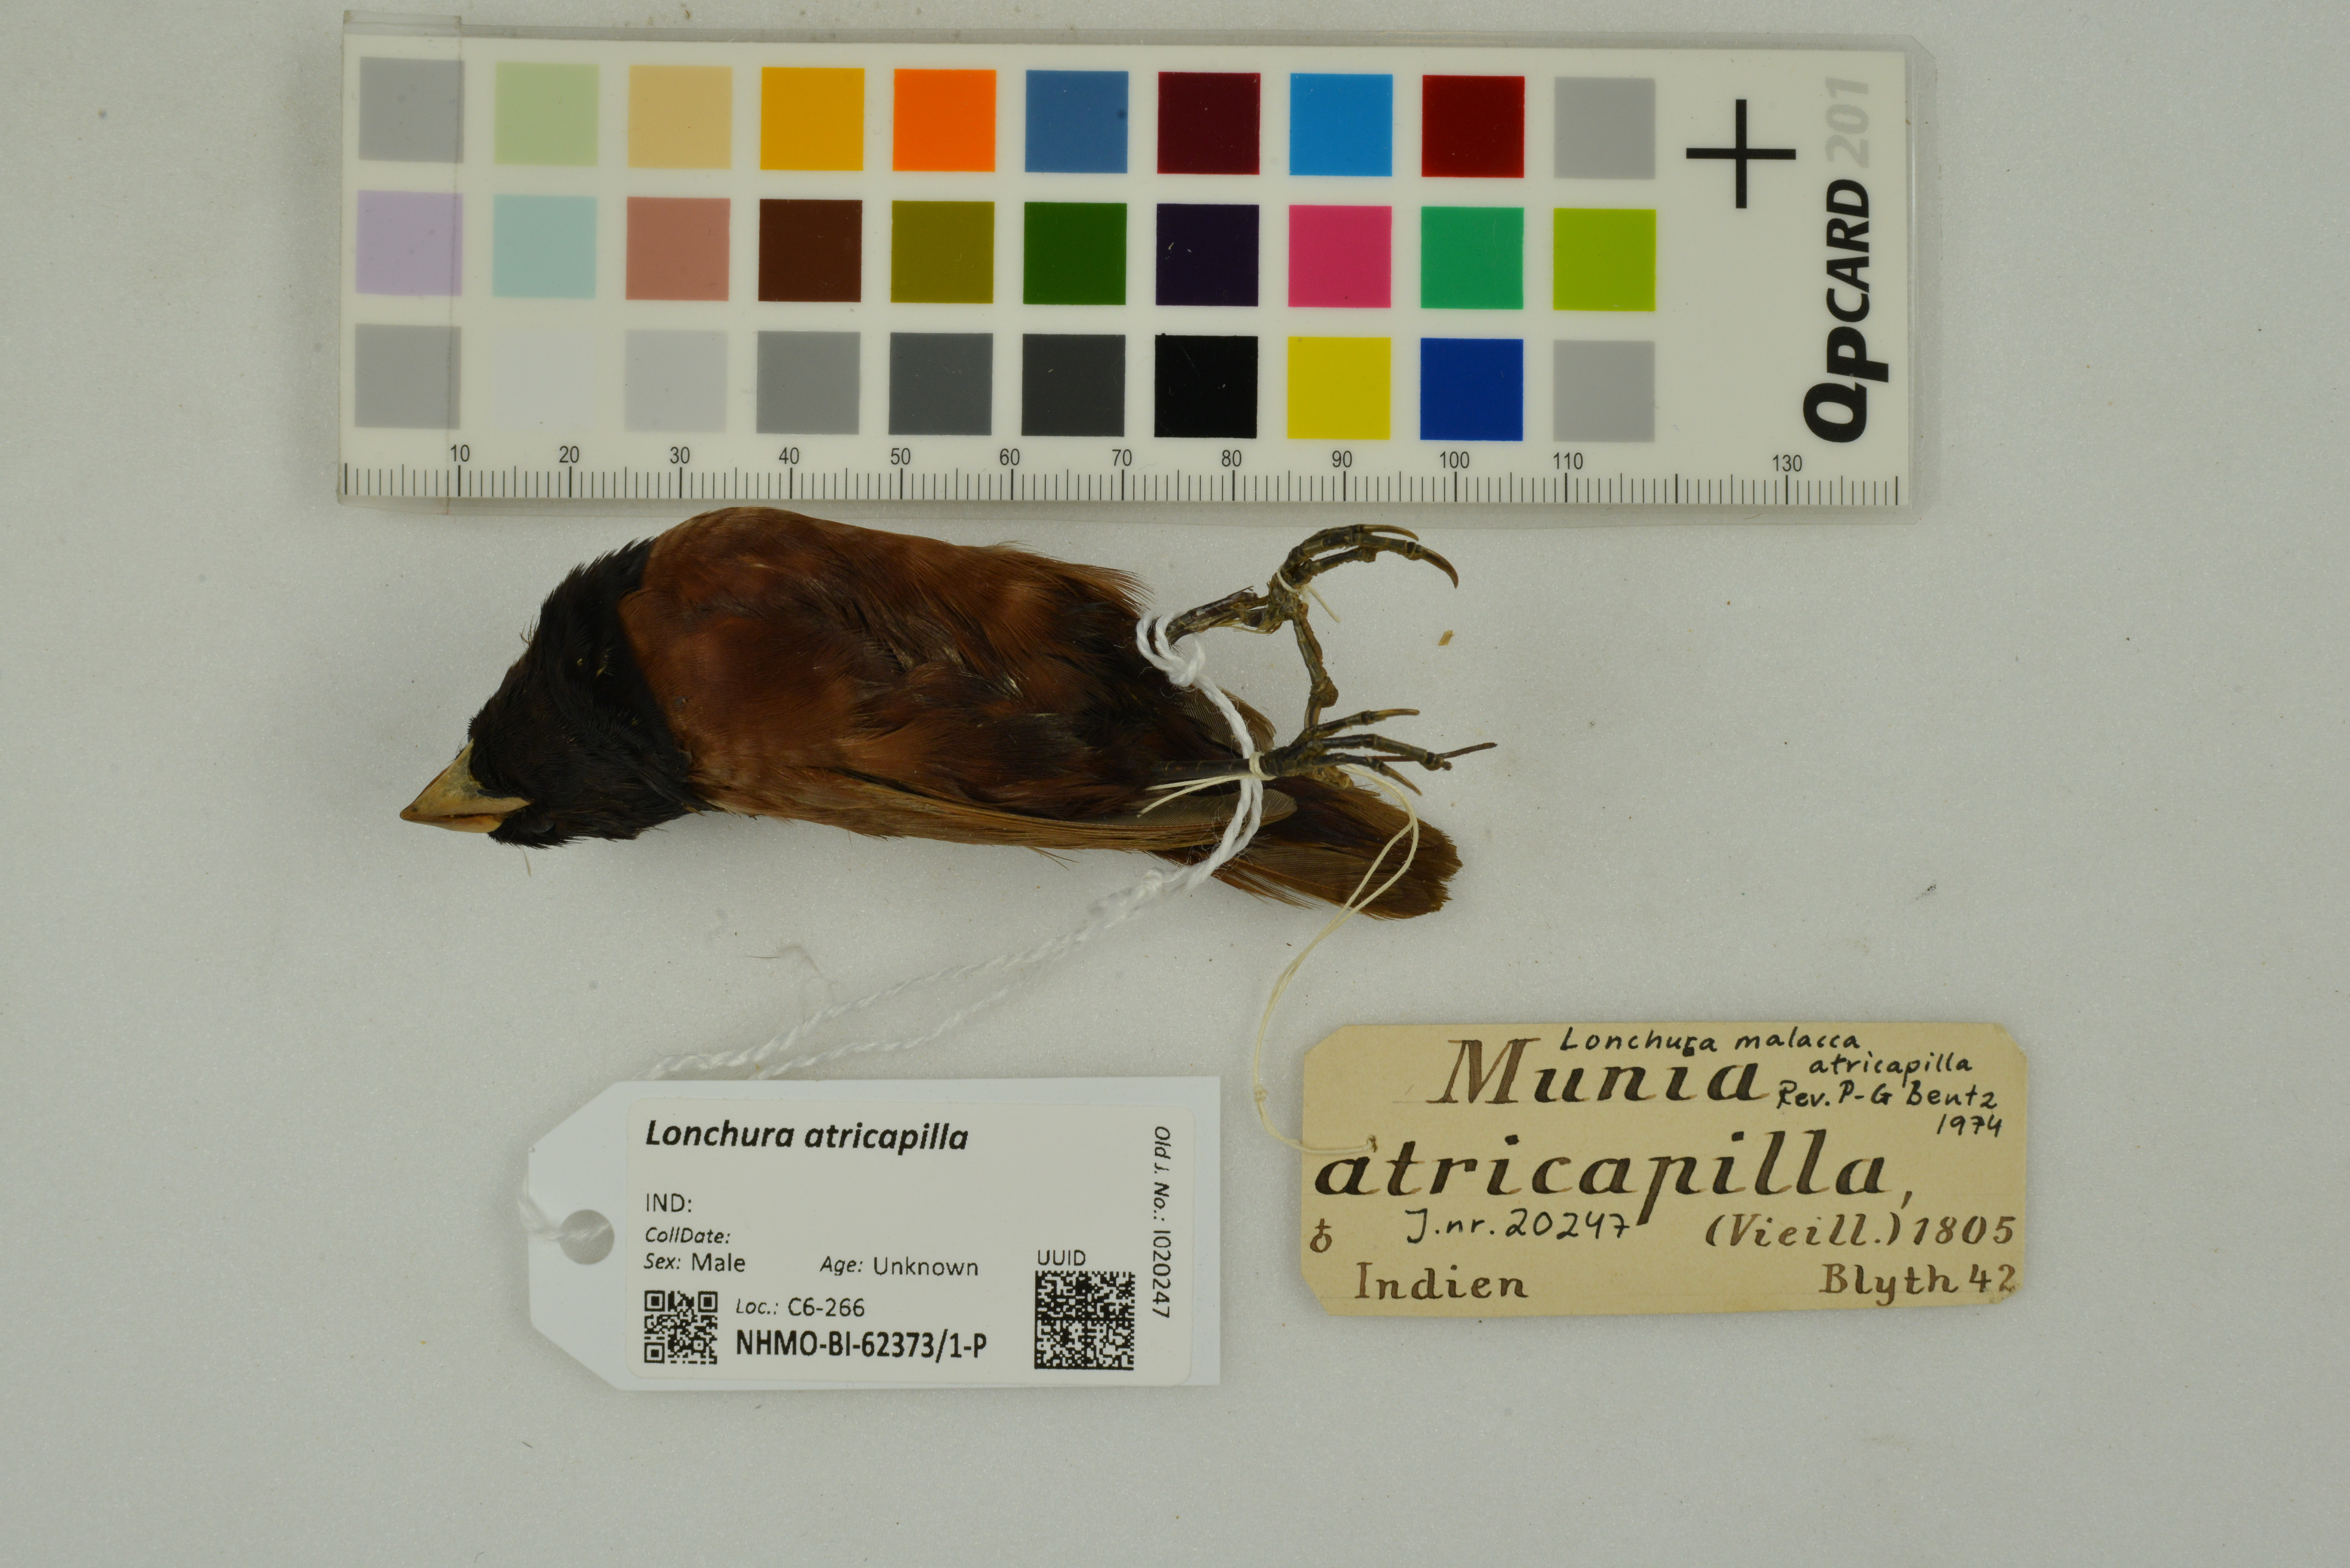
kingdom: Animalia
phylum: Chordata
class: Aves
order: Passeriformes
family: Estrildidae
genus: Lonchura
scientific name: Lonchura atricapilla
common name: Chestnut munia
